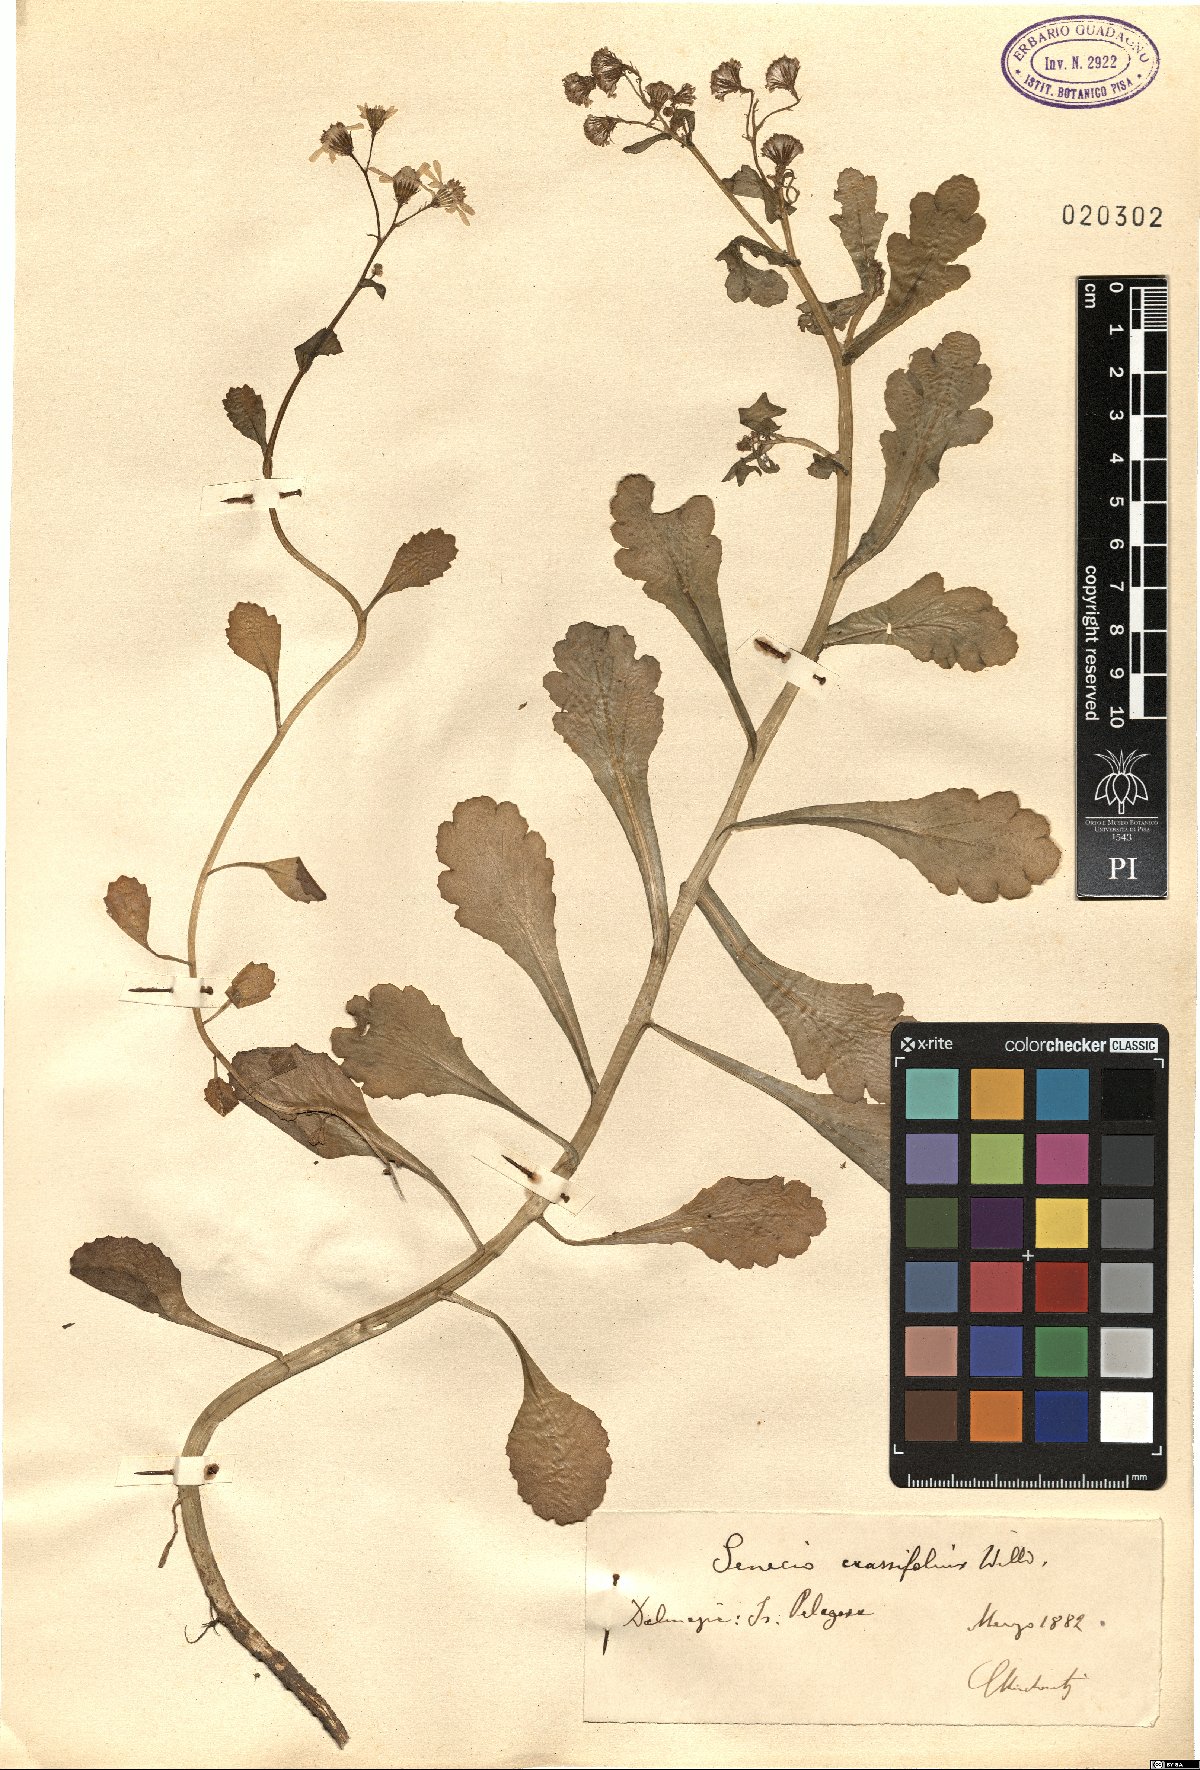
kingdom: Plantae
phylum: Tracheophyta
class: Magnoliopsida
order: Asterales
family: Asteraceae
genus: Senecio
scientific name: Senecio leucanthemifolius
